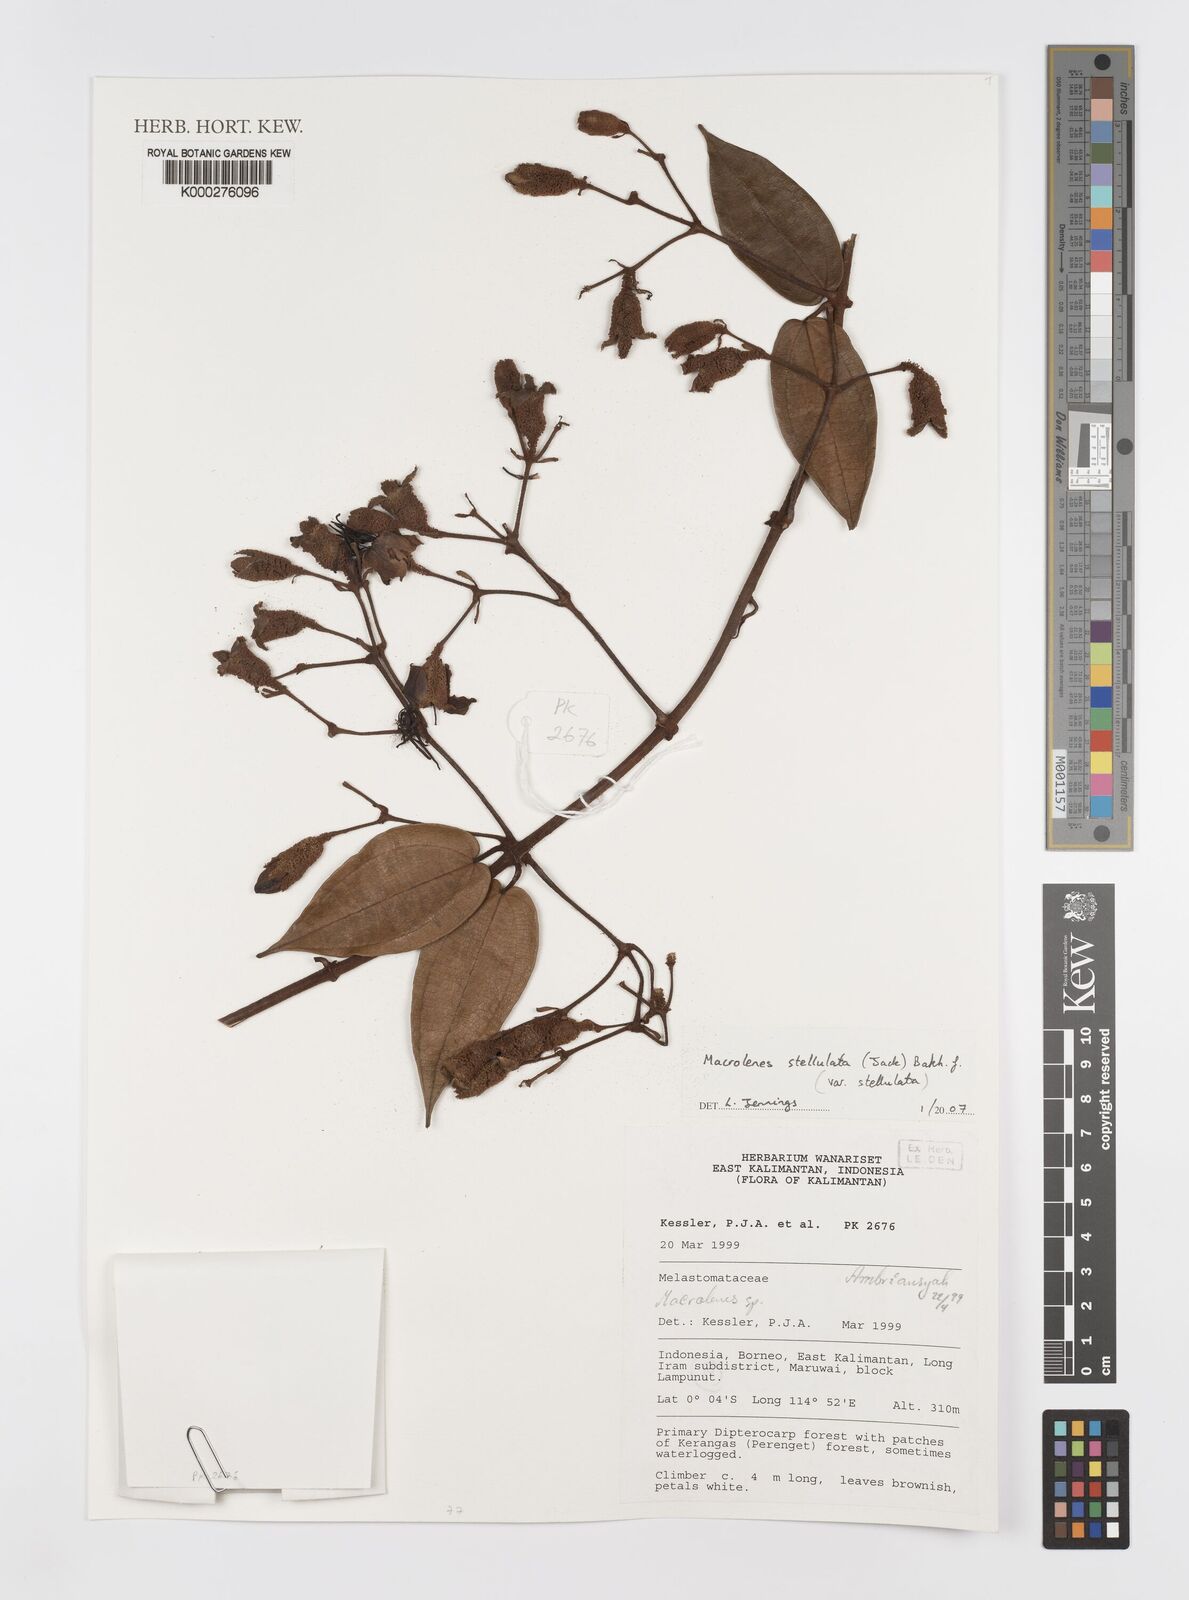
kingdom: Plantae
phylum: Tracheophyta
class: Magnoliopsida
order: Myrtales
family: Melastomataceae
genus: Macrolenes
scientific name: Macrolenes stellulata
